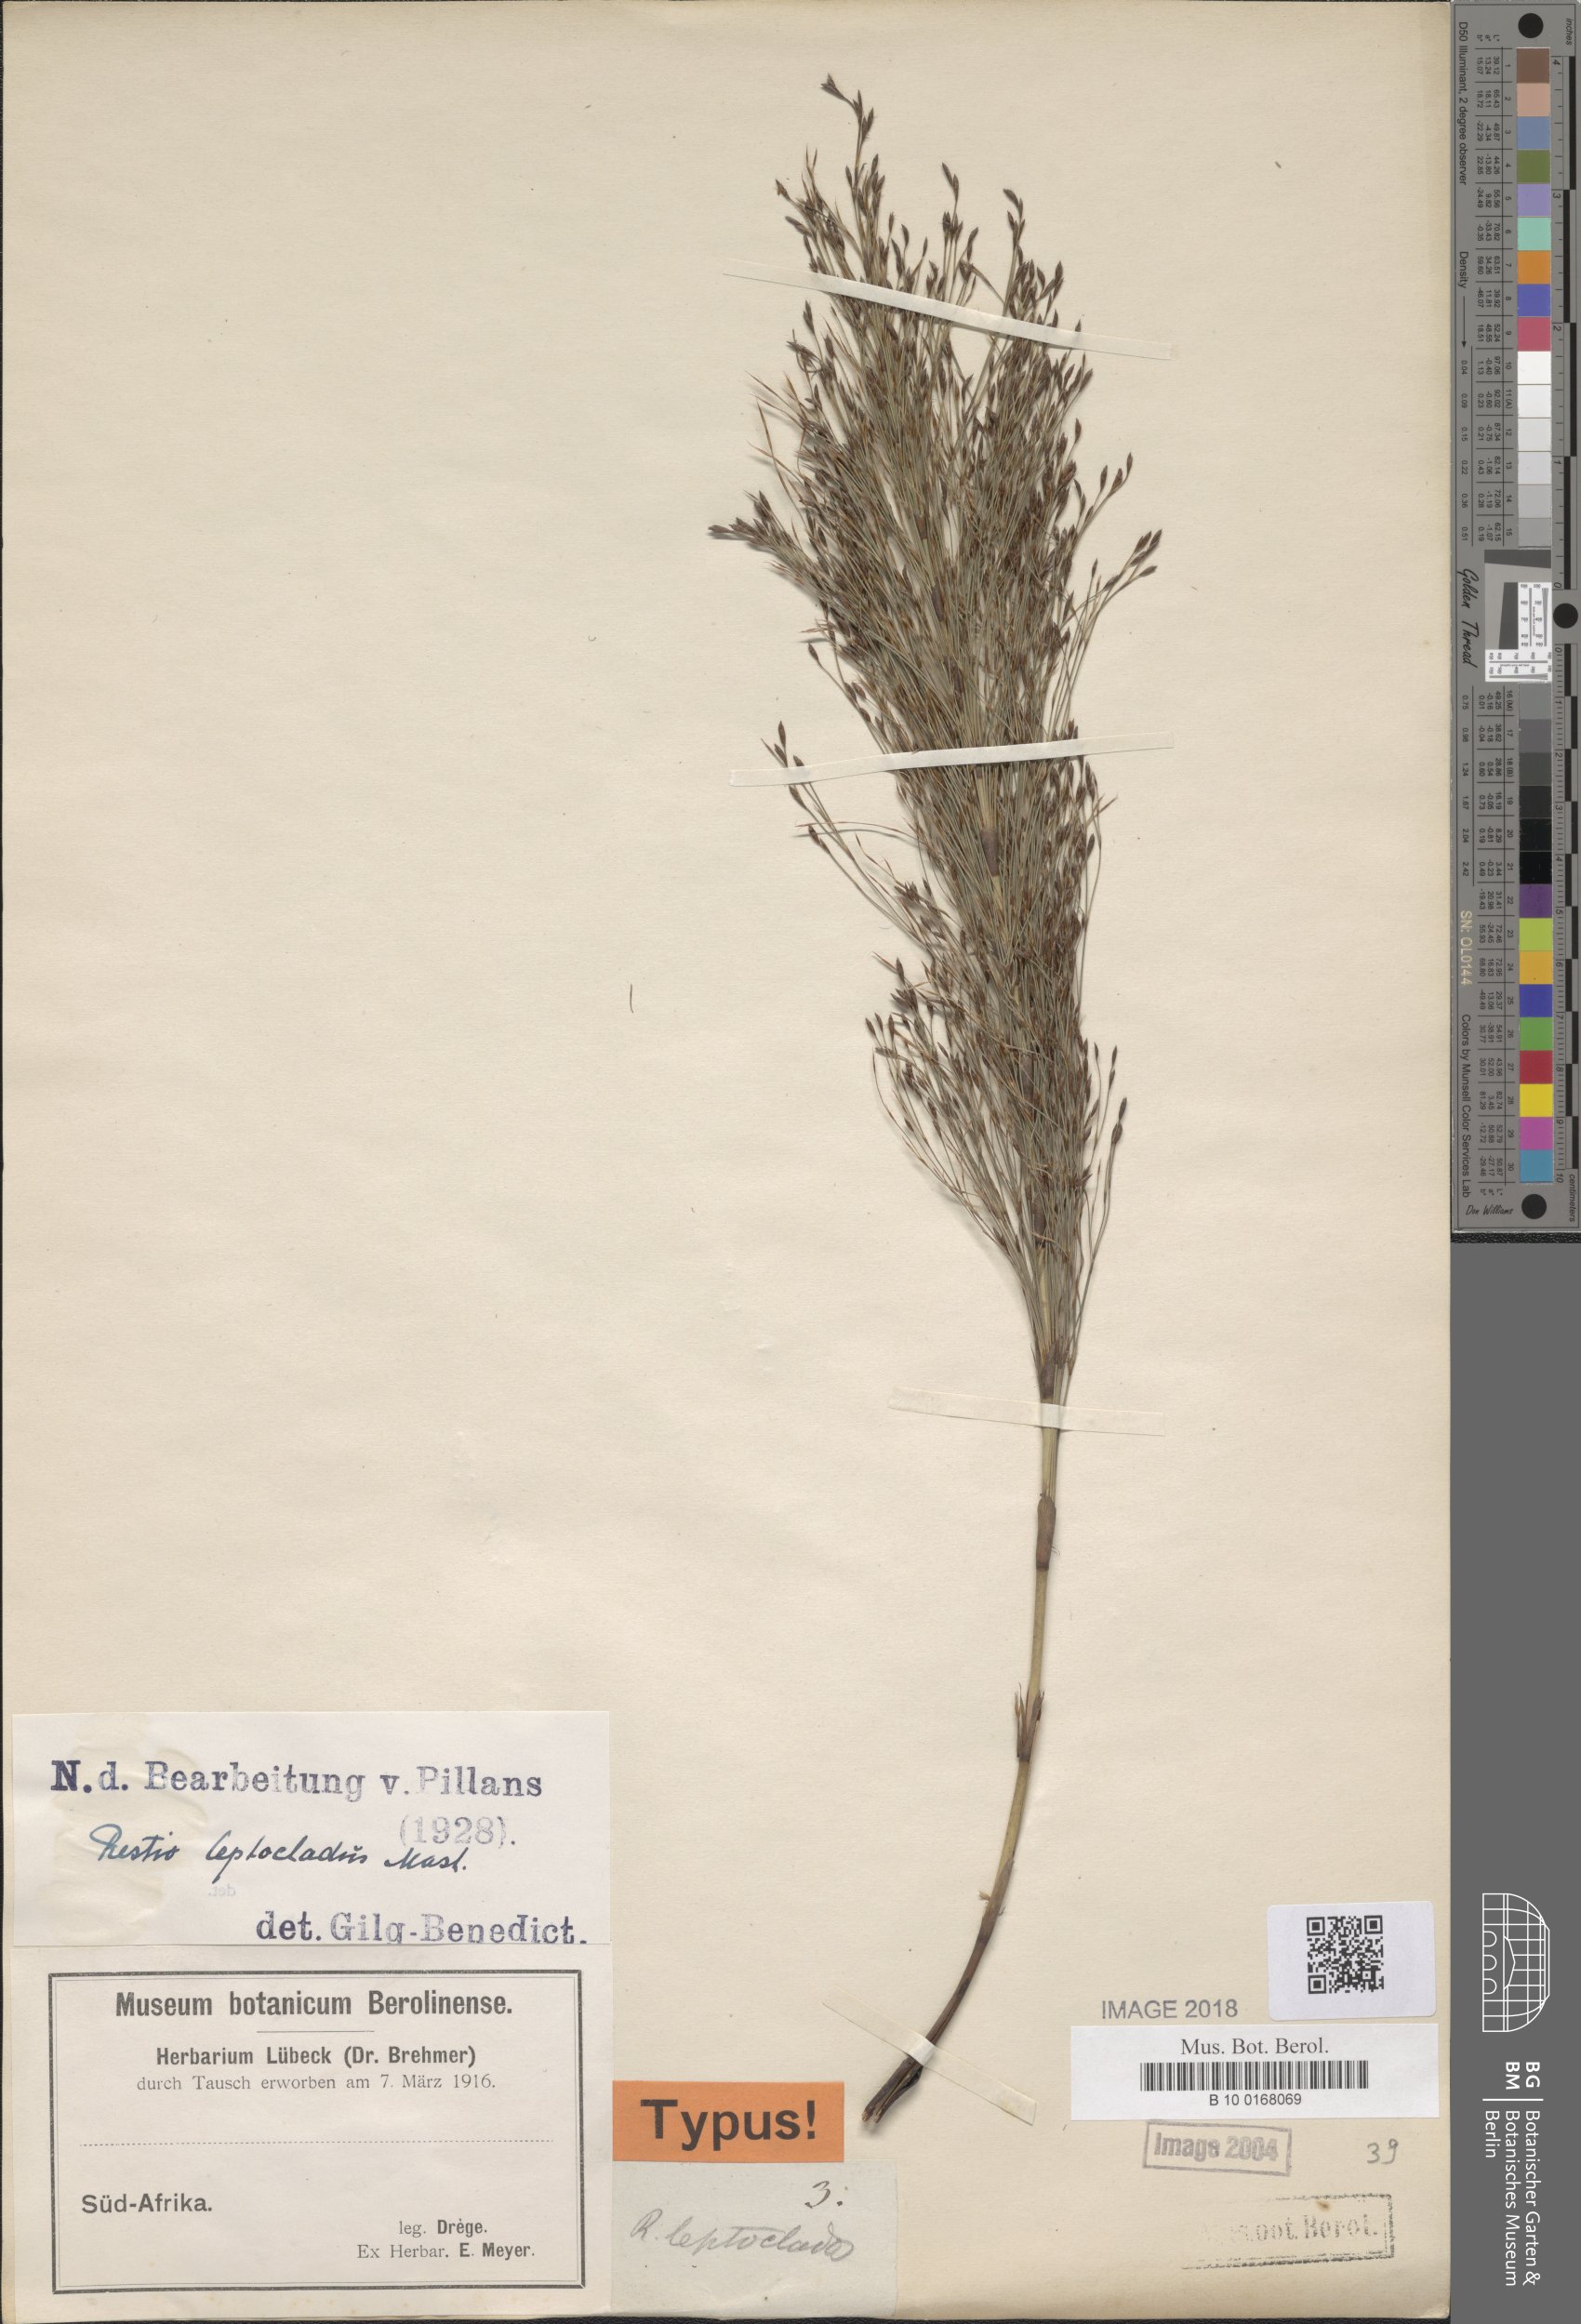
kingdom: Plantae
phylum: Tracheophyta
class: Liliopsida
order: Poales
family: Restionaceae
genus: Restio
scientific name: Restio leptoclados
